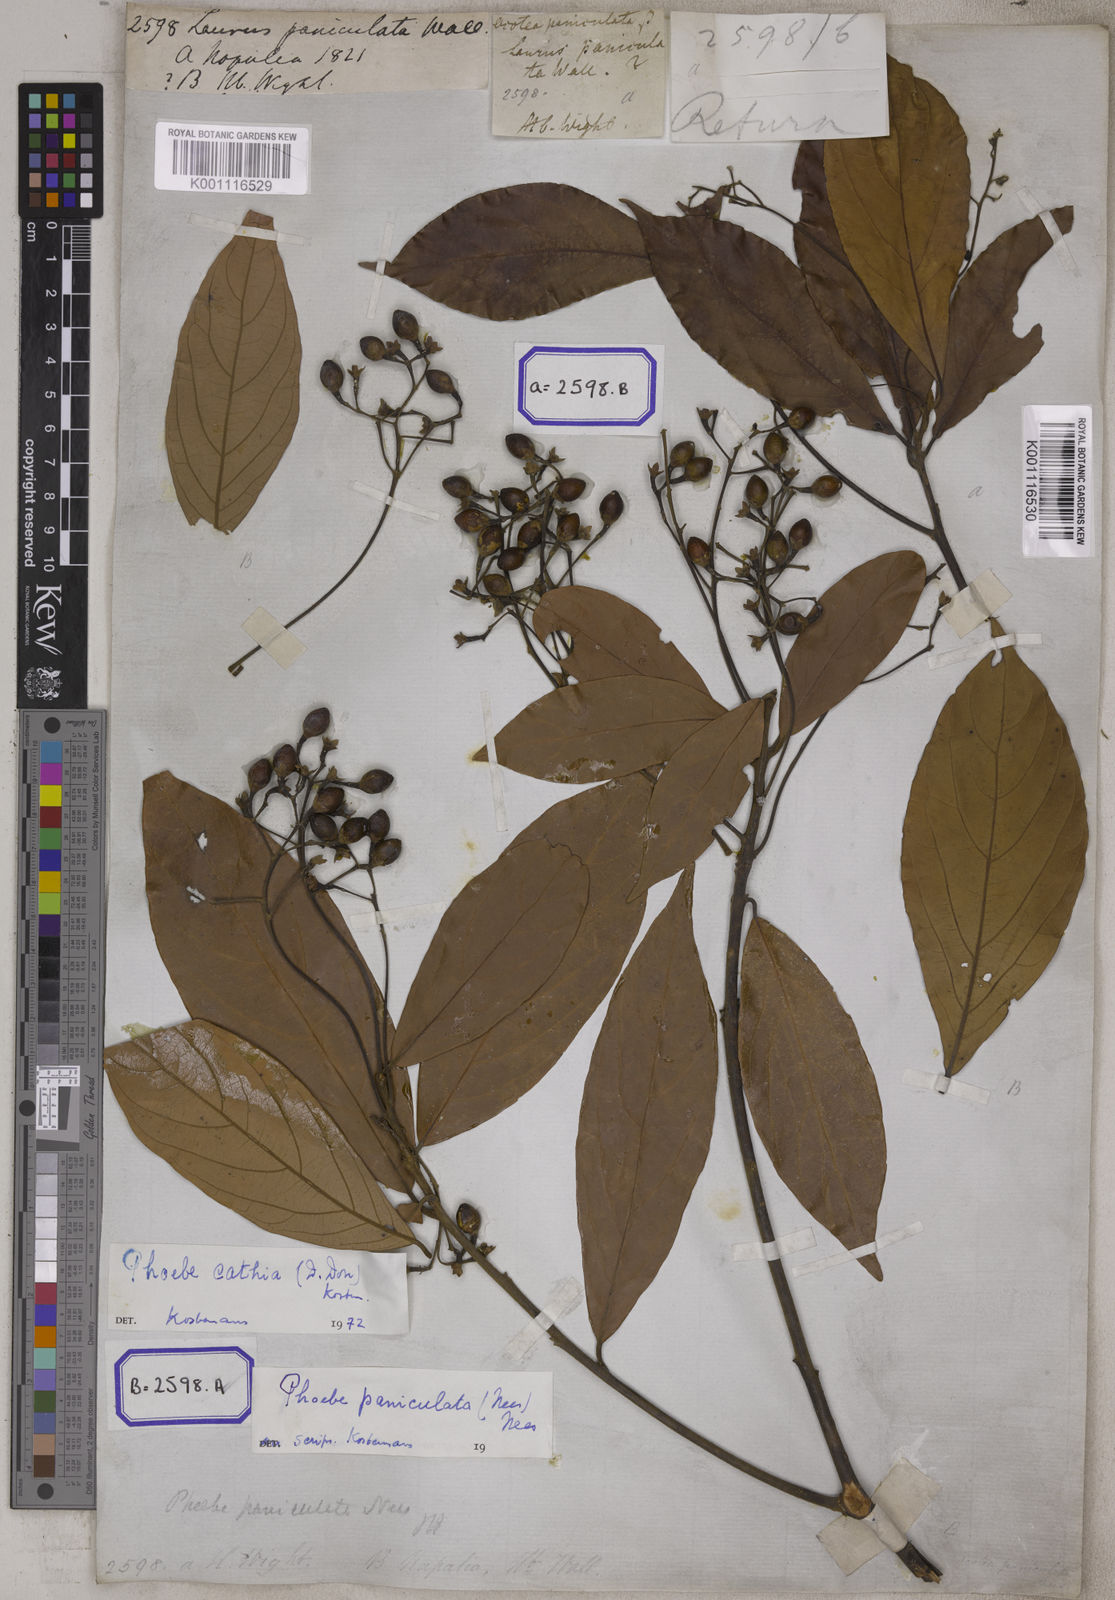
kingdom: Plantae
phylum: Tracheophyta
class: Magnoliopsida
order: Laurales
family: Lauraceae
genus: Phoebe
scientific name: Phoebe cathia
